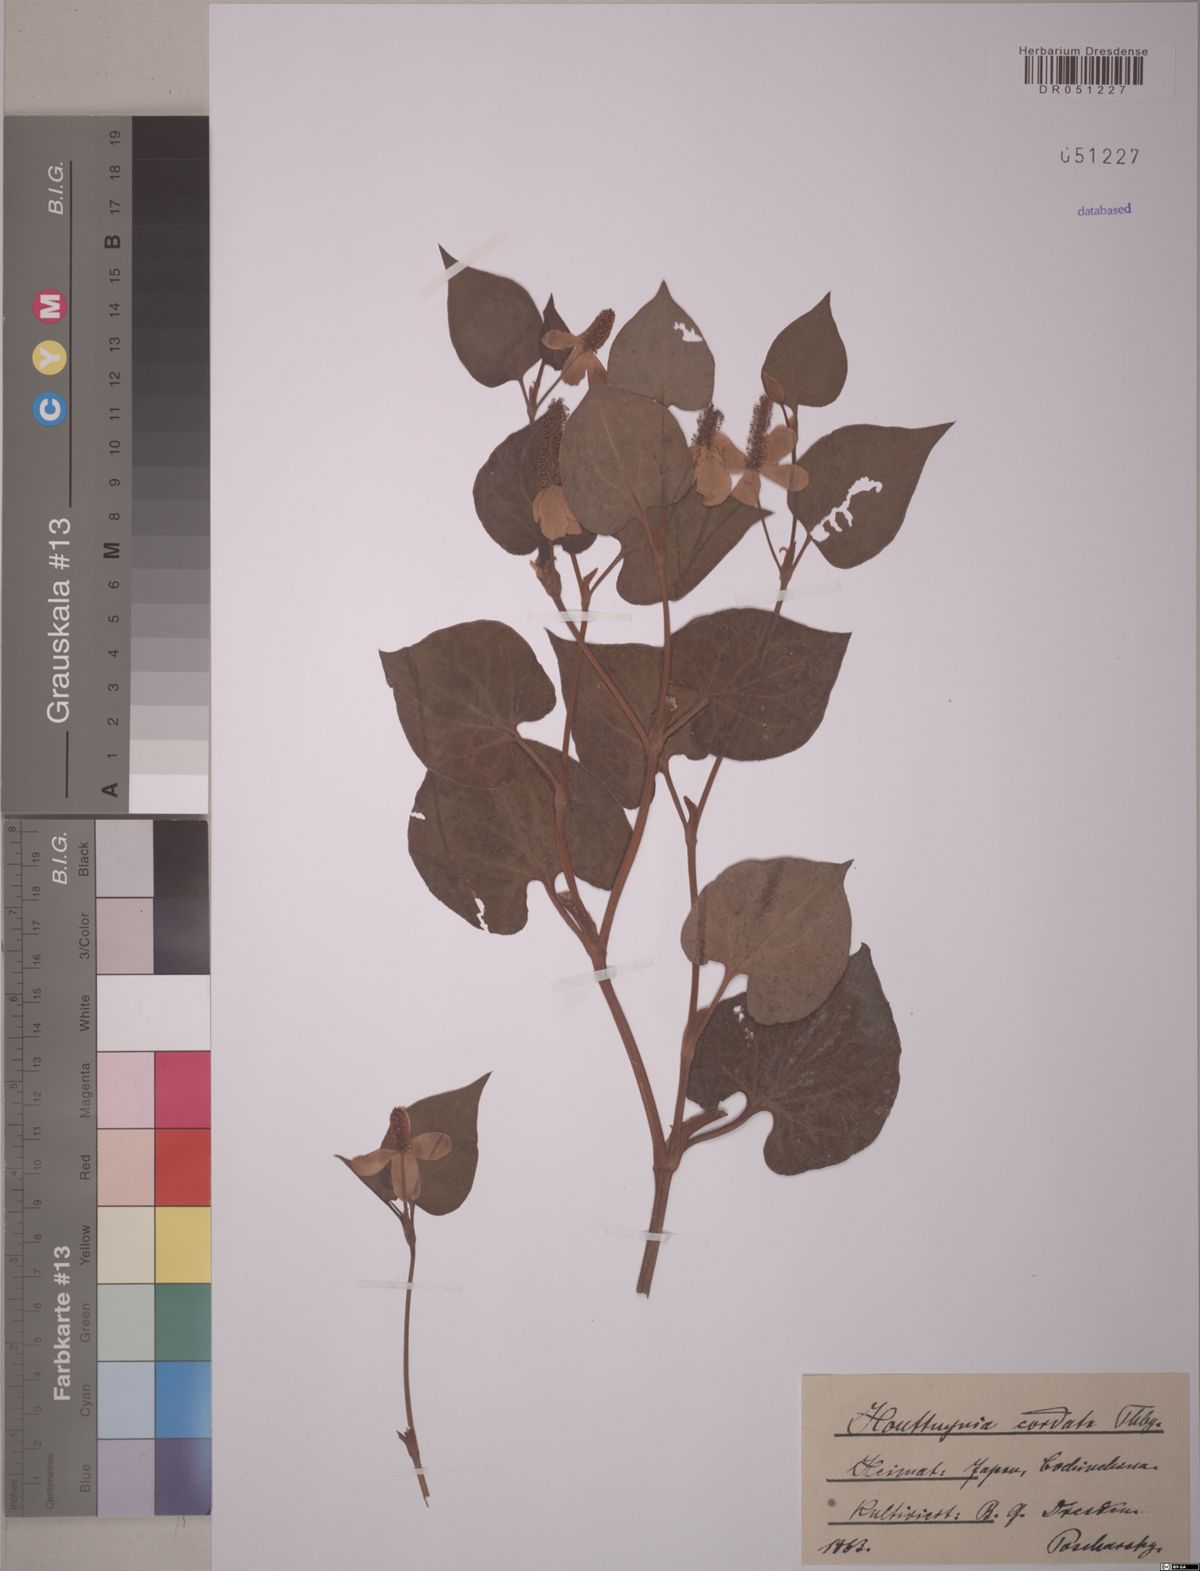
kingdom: Plantae
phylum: Tracheophyta
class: Magnoliopsida
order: Piperales
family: Saururaceae
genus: Houttuynia
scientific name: Houttuynia cordata
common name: Chameleon
